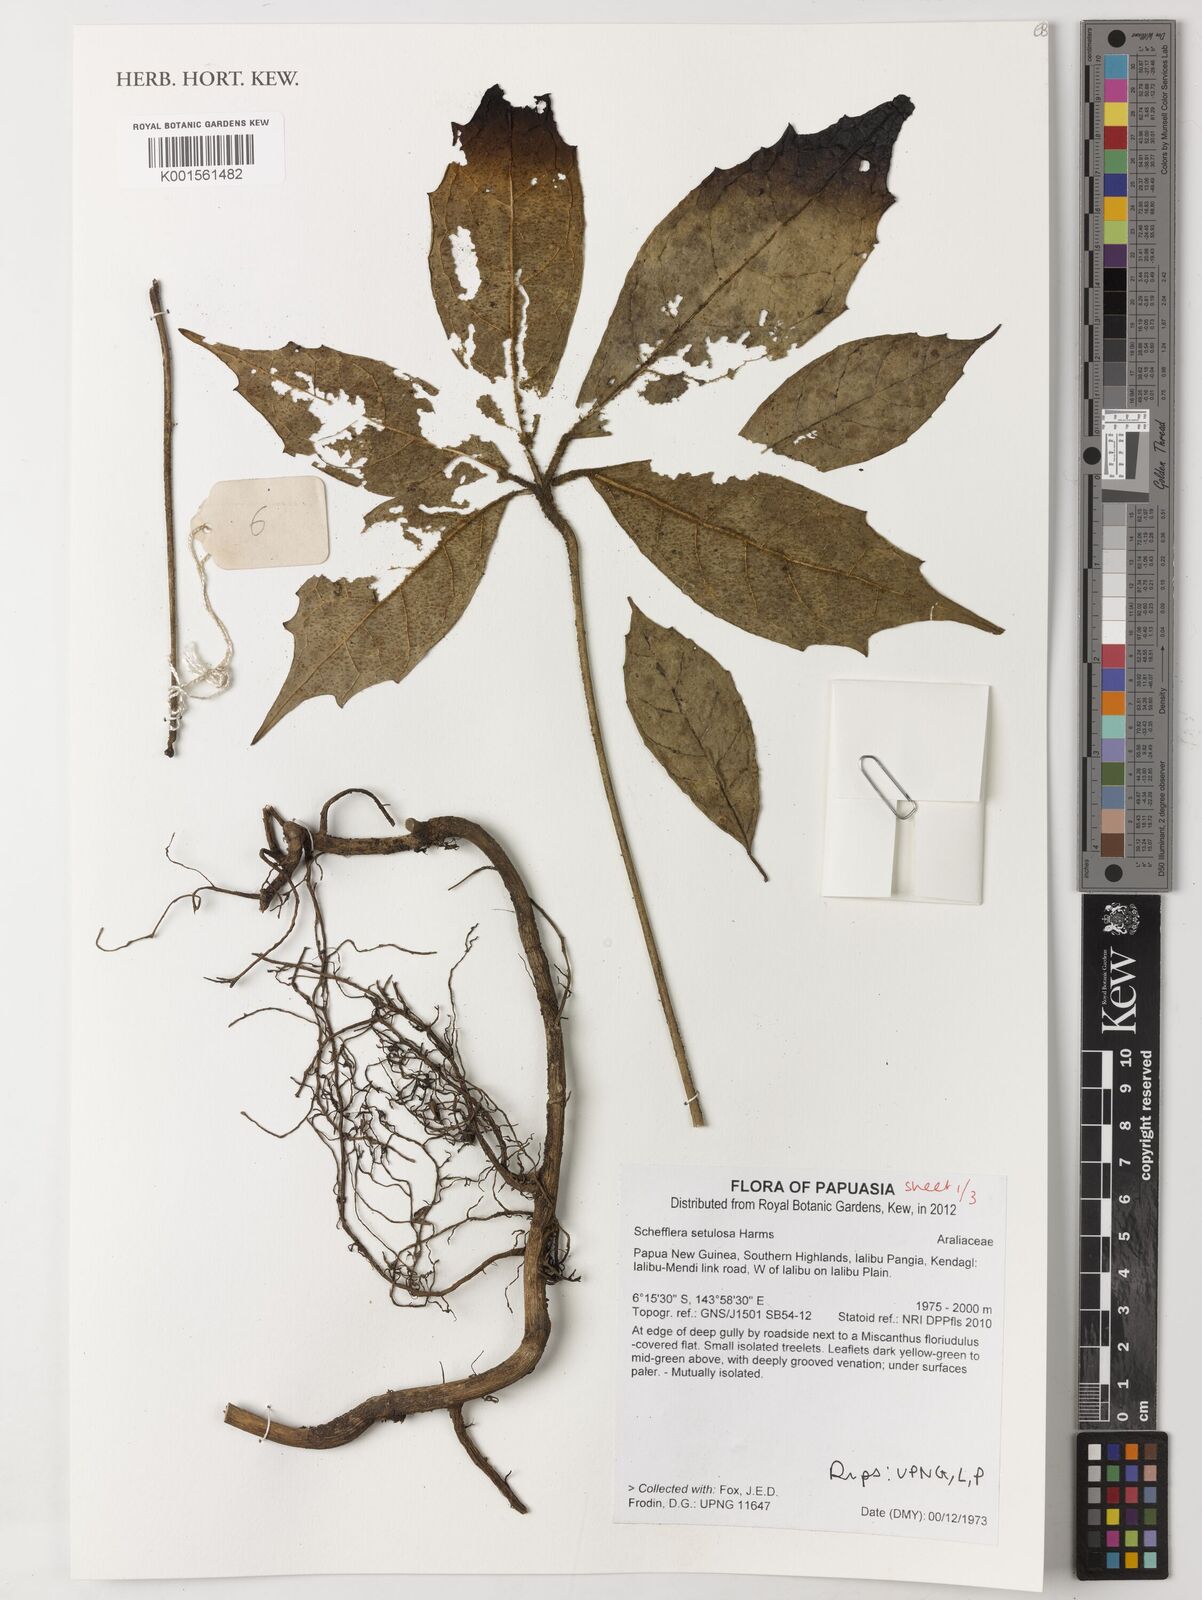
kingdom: Plantae
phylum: Tracheophyta
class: Magnoliopsida
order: Apiales
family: Araliaceae
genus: Heptapleurum
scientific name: Heptapleurum setulosum
